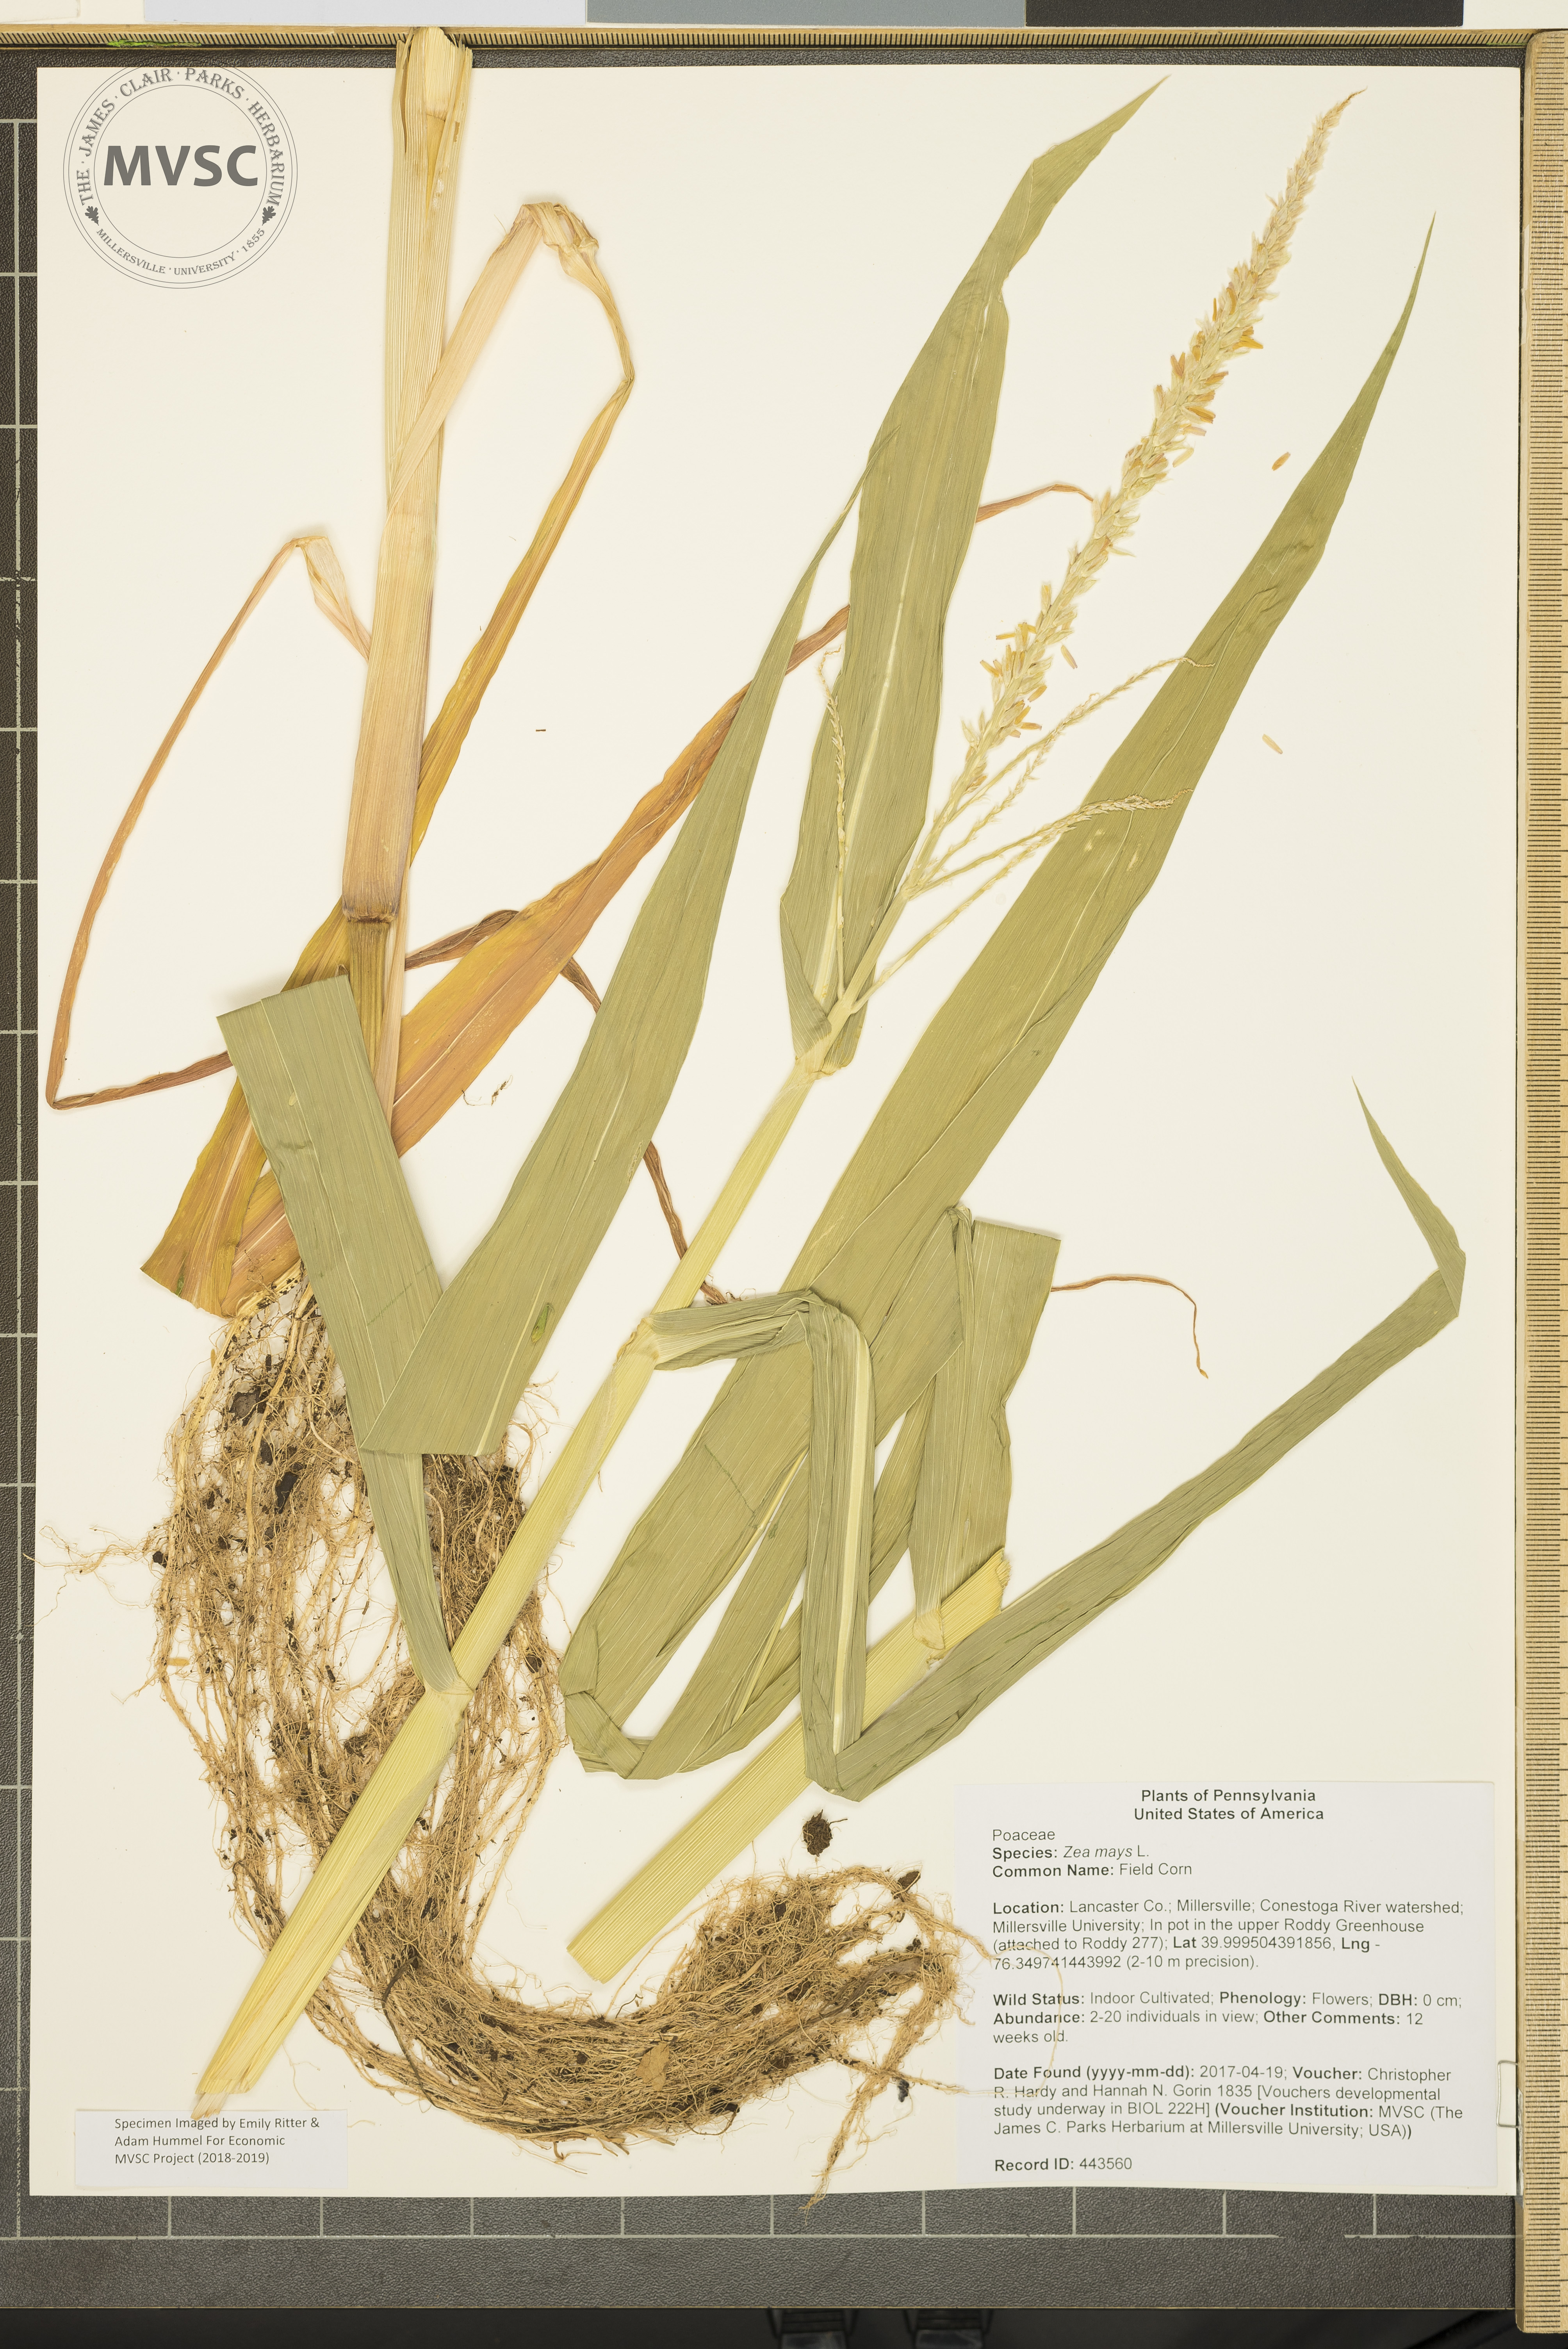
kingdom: Plantae
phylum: Tracheophyta
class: Liliopsida
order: Poales
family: Poaceae
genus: Zea
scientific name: Zea mays
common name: Field Corn
